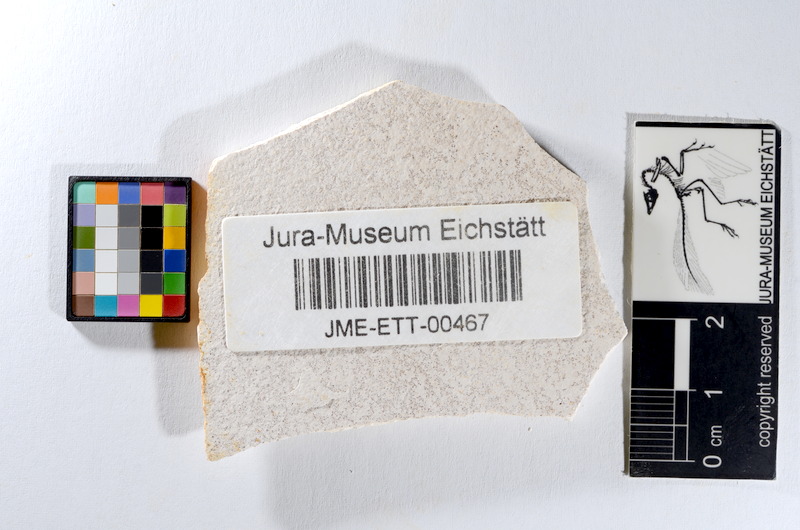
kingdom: Animalia
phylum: Chordata
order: Salmoniformes
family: Orthogonikleithridae
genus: Orthogonikleithrus
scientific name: Orthogonikleithrus hoelli
